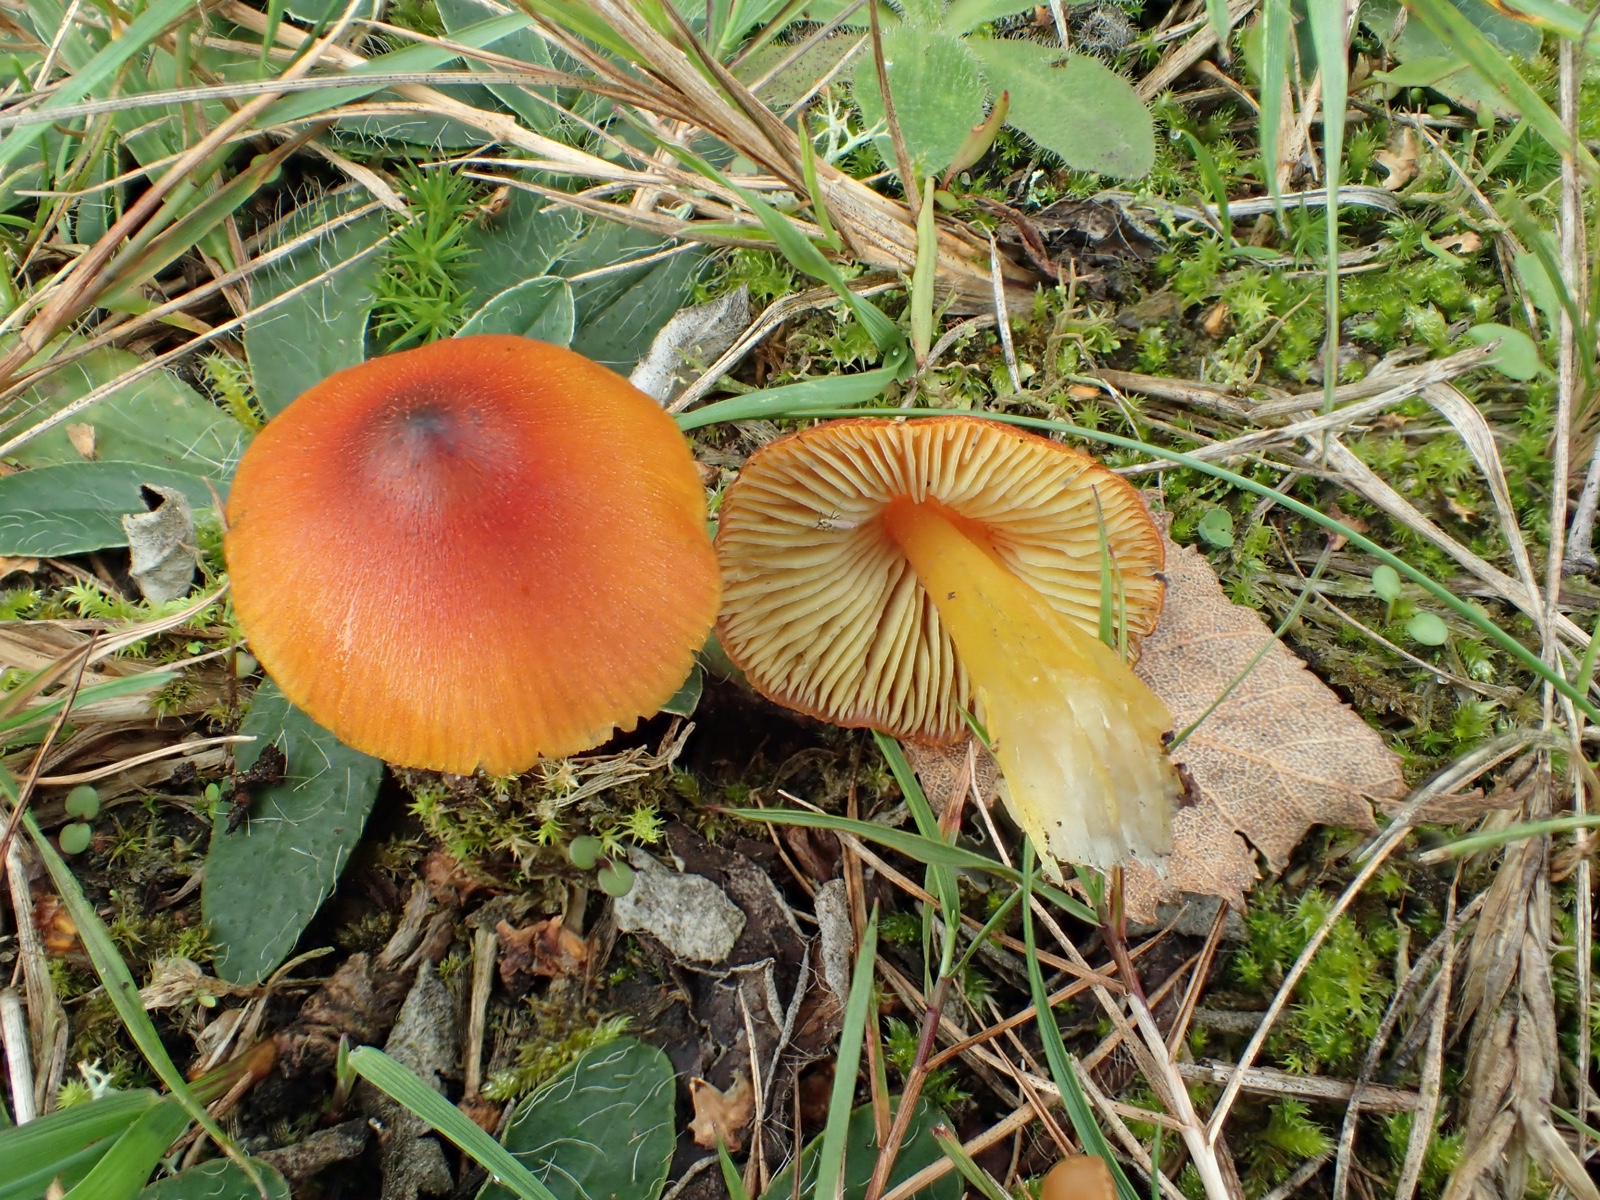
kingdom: Fungi
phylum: Basidiomycota
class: Agaricomycetes
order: Agaricales
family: Hygrophoraceae
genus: Hygrocybe
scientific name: Hygrocybe conica
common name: kegle-vokshat
